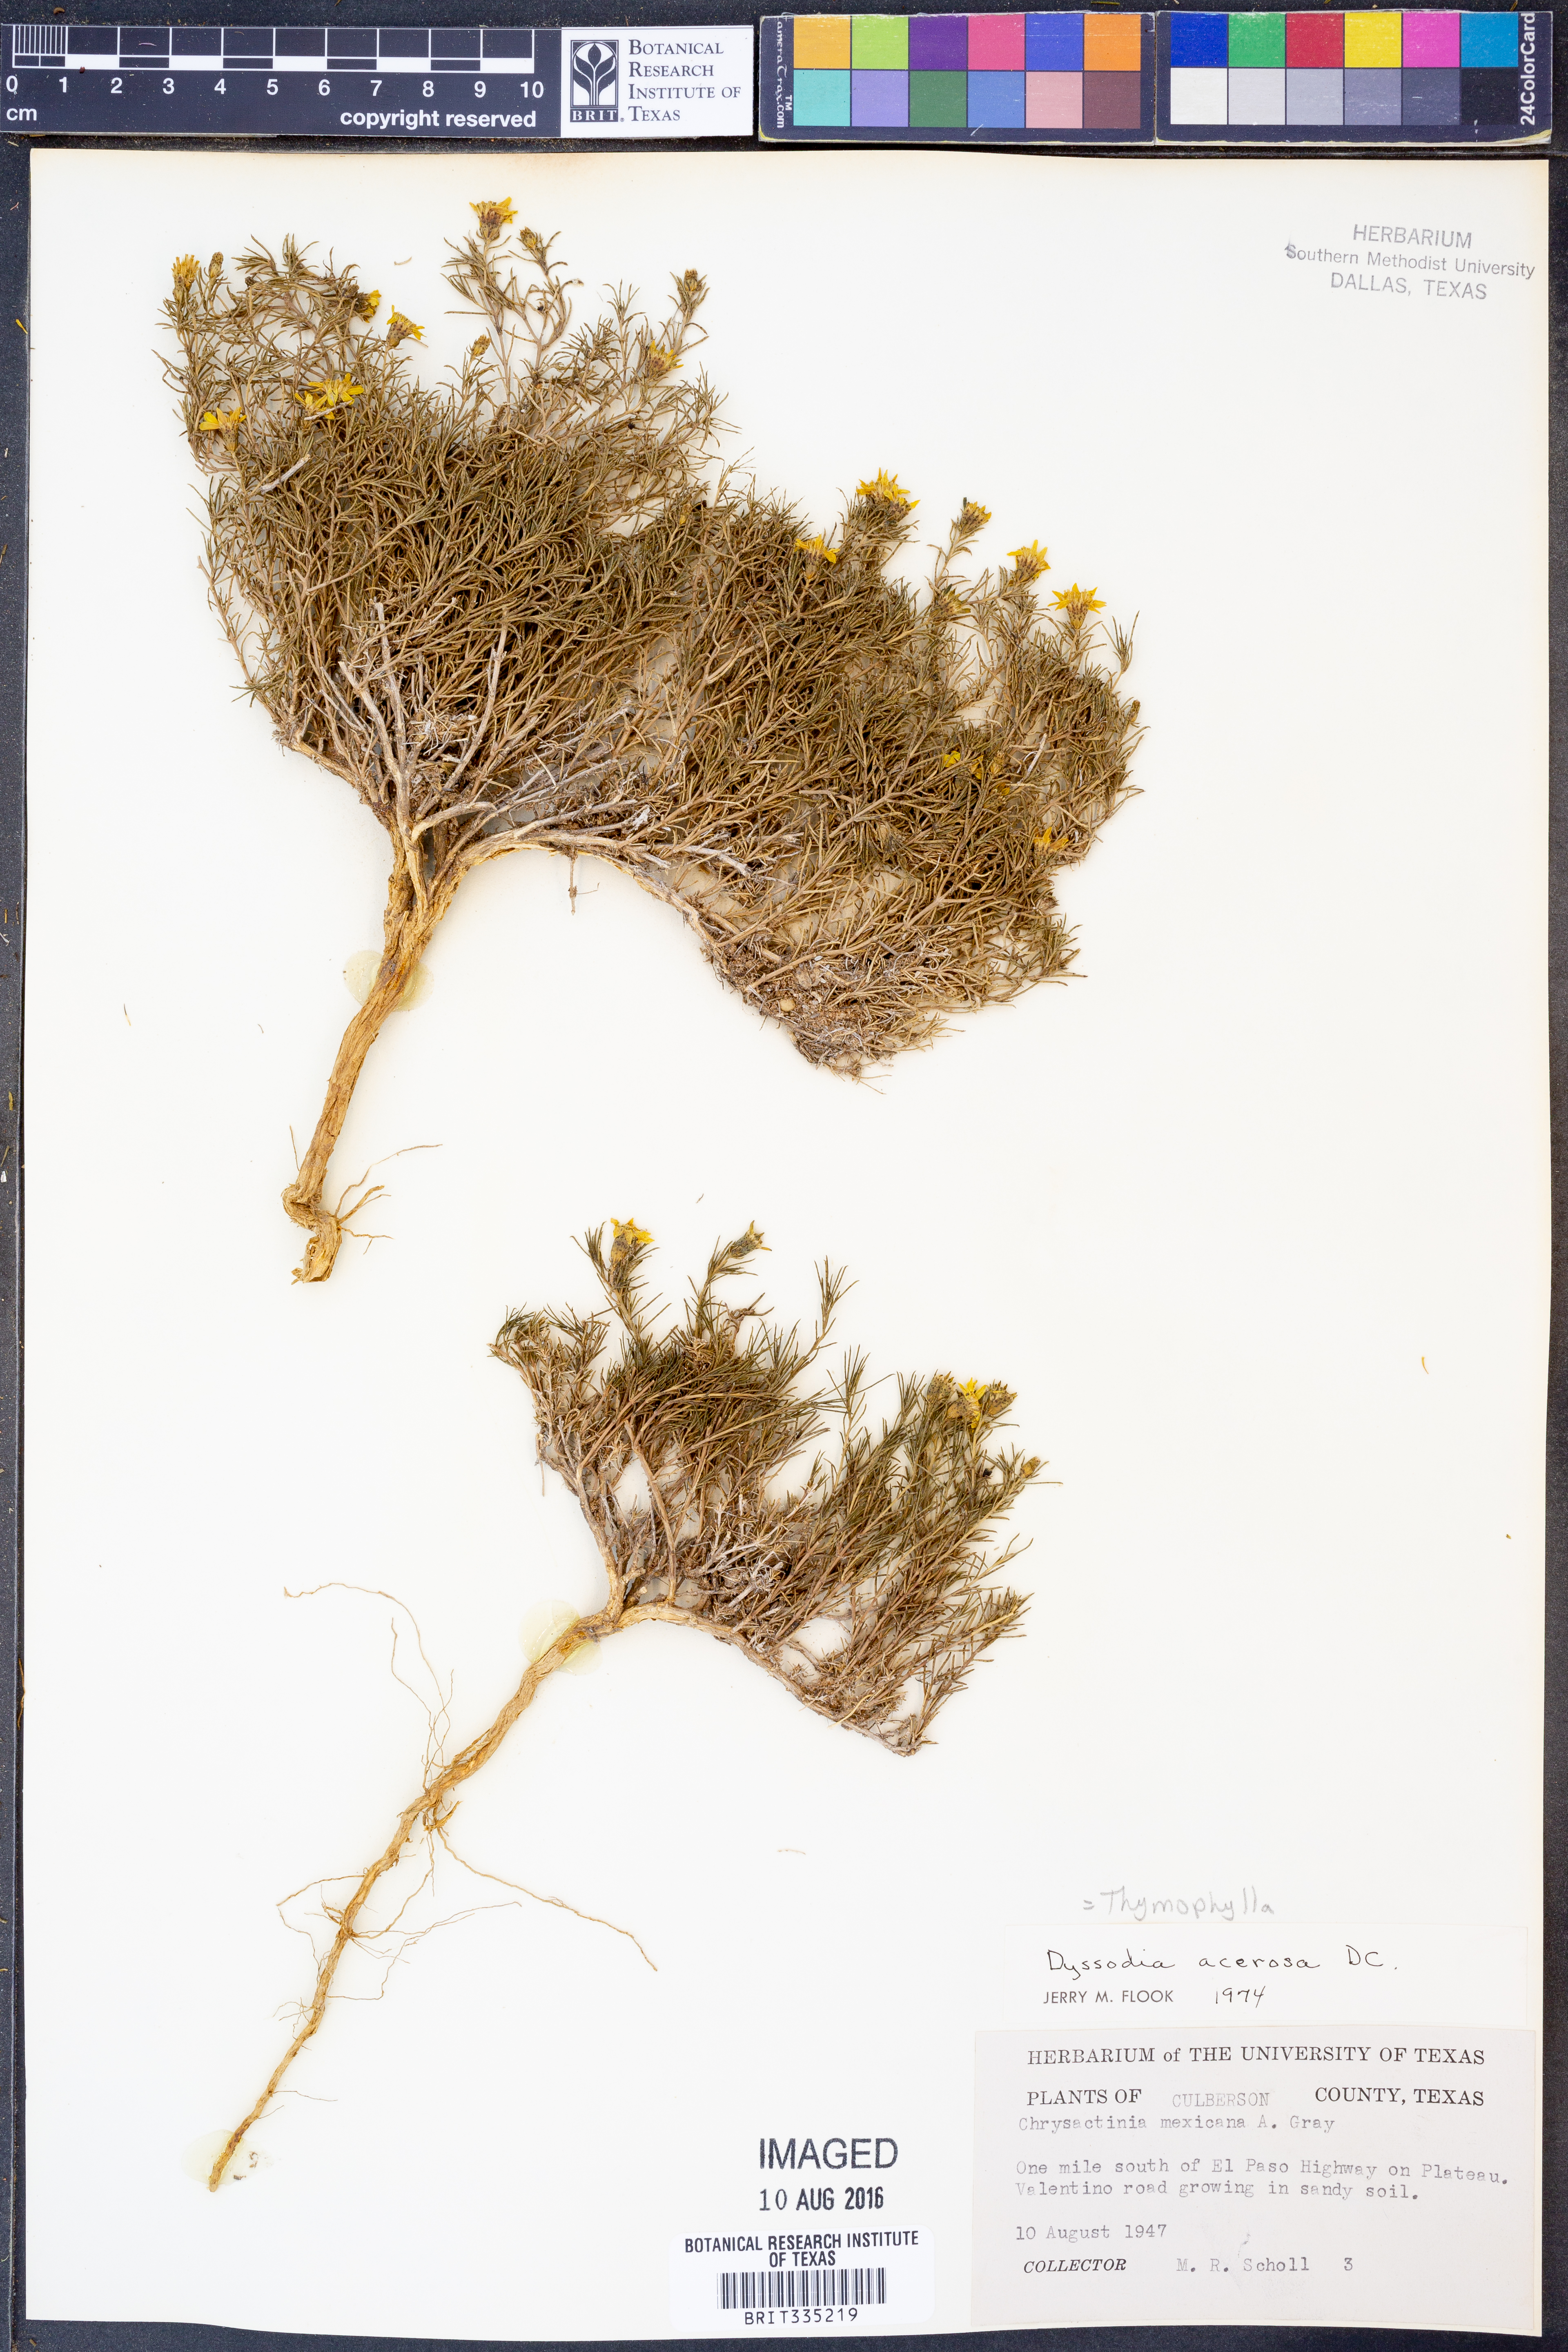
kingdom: Plantae
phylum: Tracheophyta
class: Magnoliopsida
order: Asterales
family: Asteraceae
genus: Thymophylla
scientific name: Thymophylla acerosa
